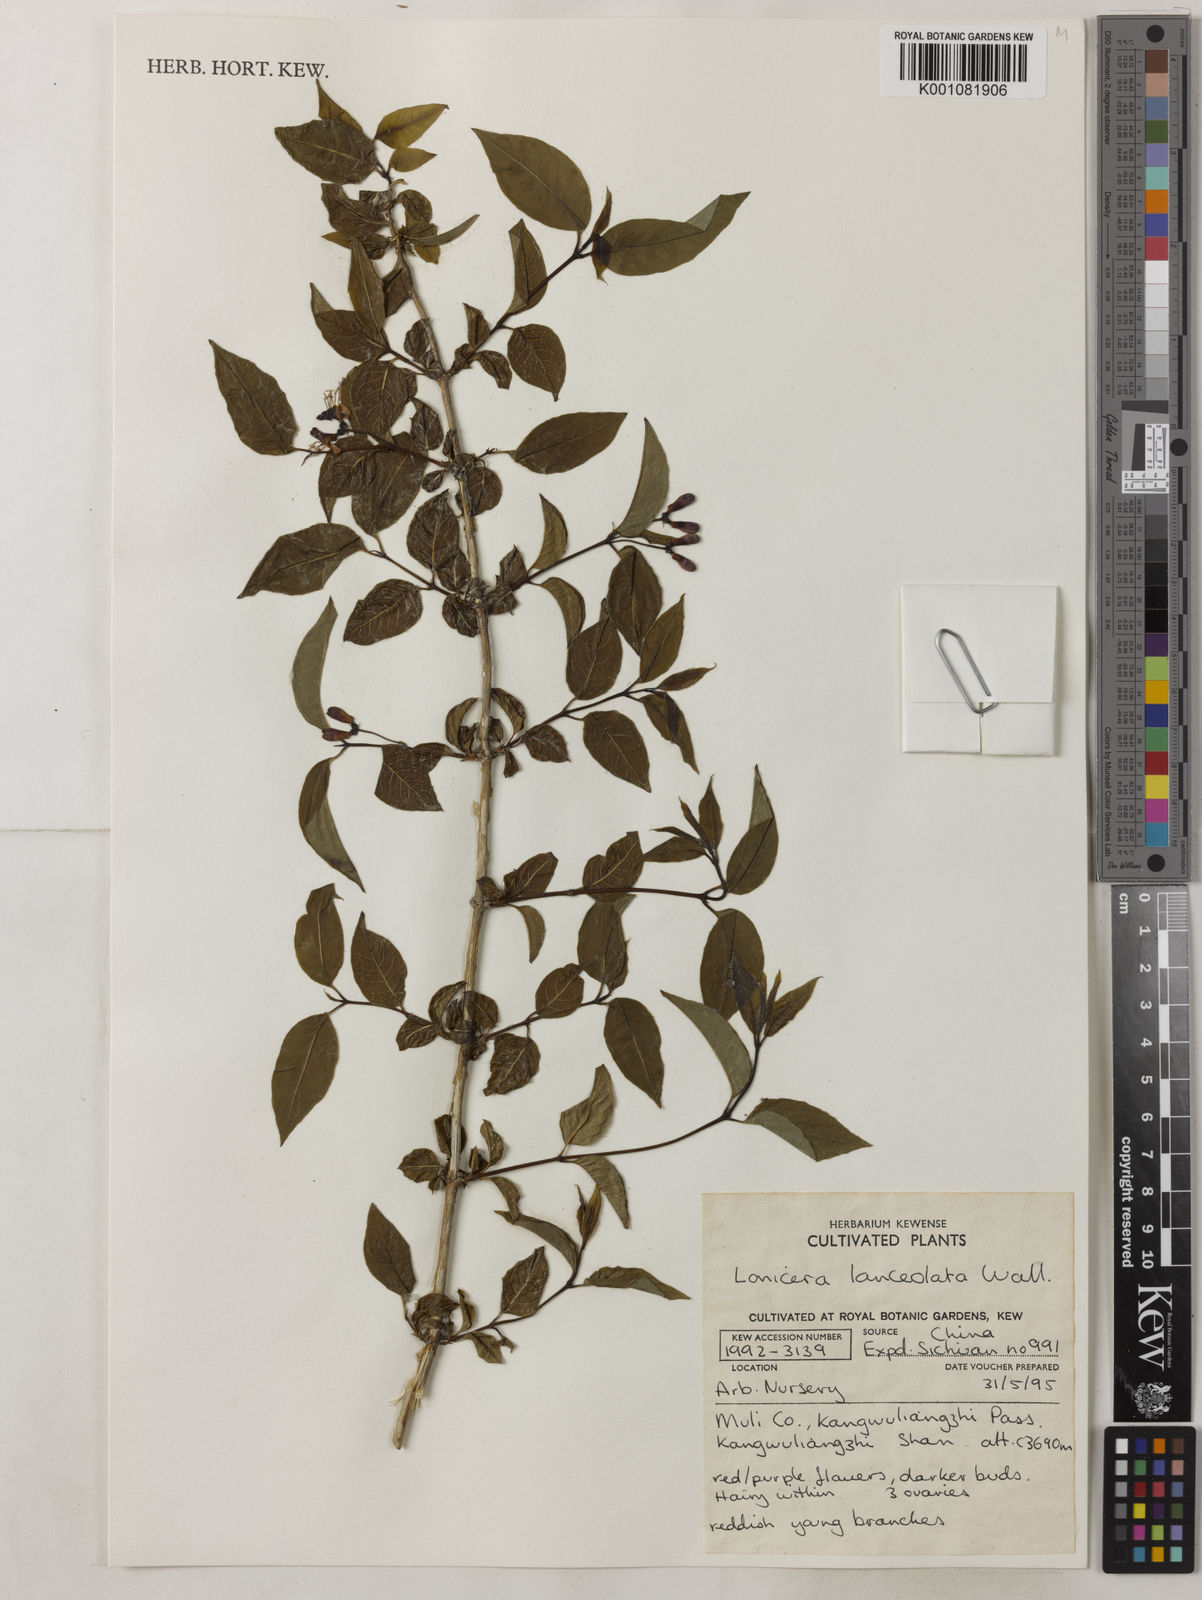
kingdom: Plantae
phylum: Tracheophyta
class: Magnoliopsida
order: Dipsacales
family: Caprifoliaceae
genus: Lonicera
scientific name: Lonicera lanceolata
